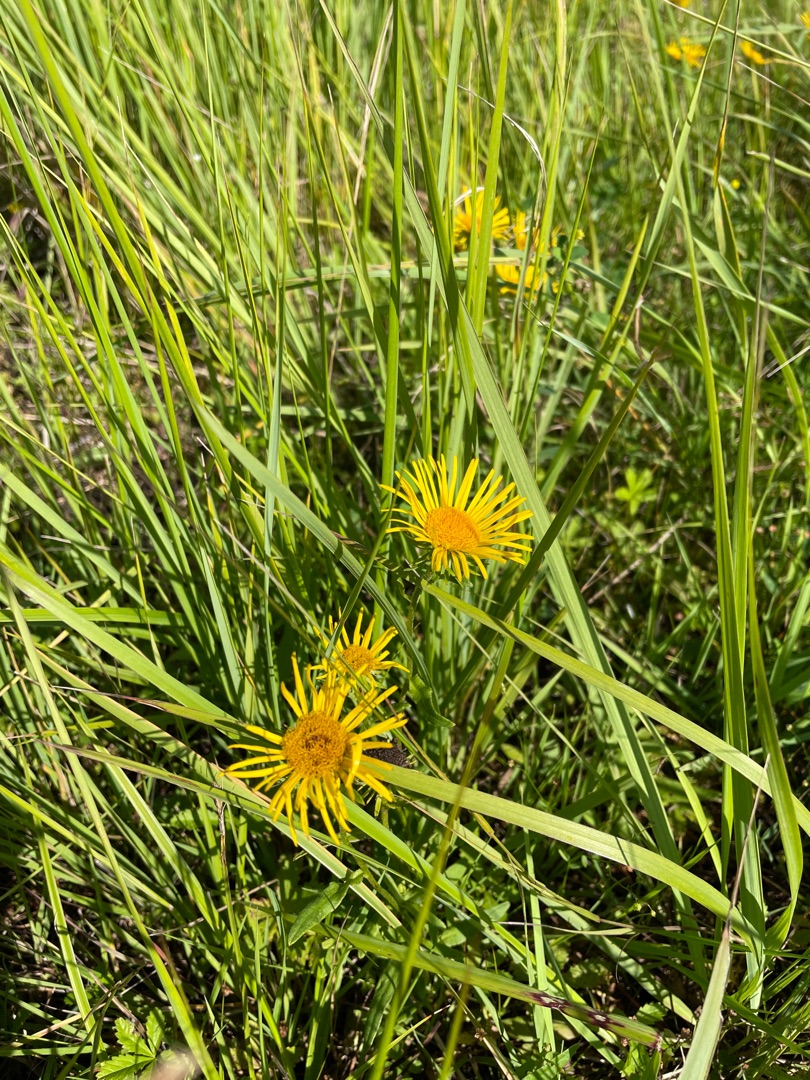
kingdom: Plantae
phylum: Tracheophyta
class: Magnoliopsida
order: Asterales
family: Asteraceae
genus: Pentanema
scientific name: Pentanema salicinum
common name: Pile-alant
